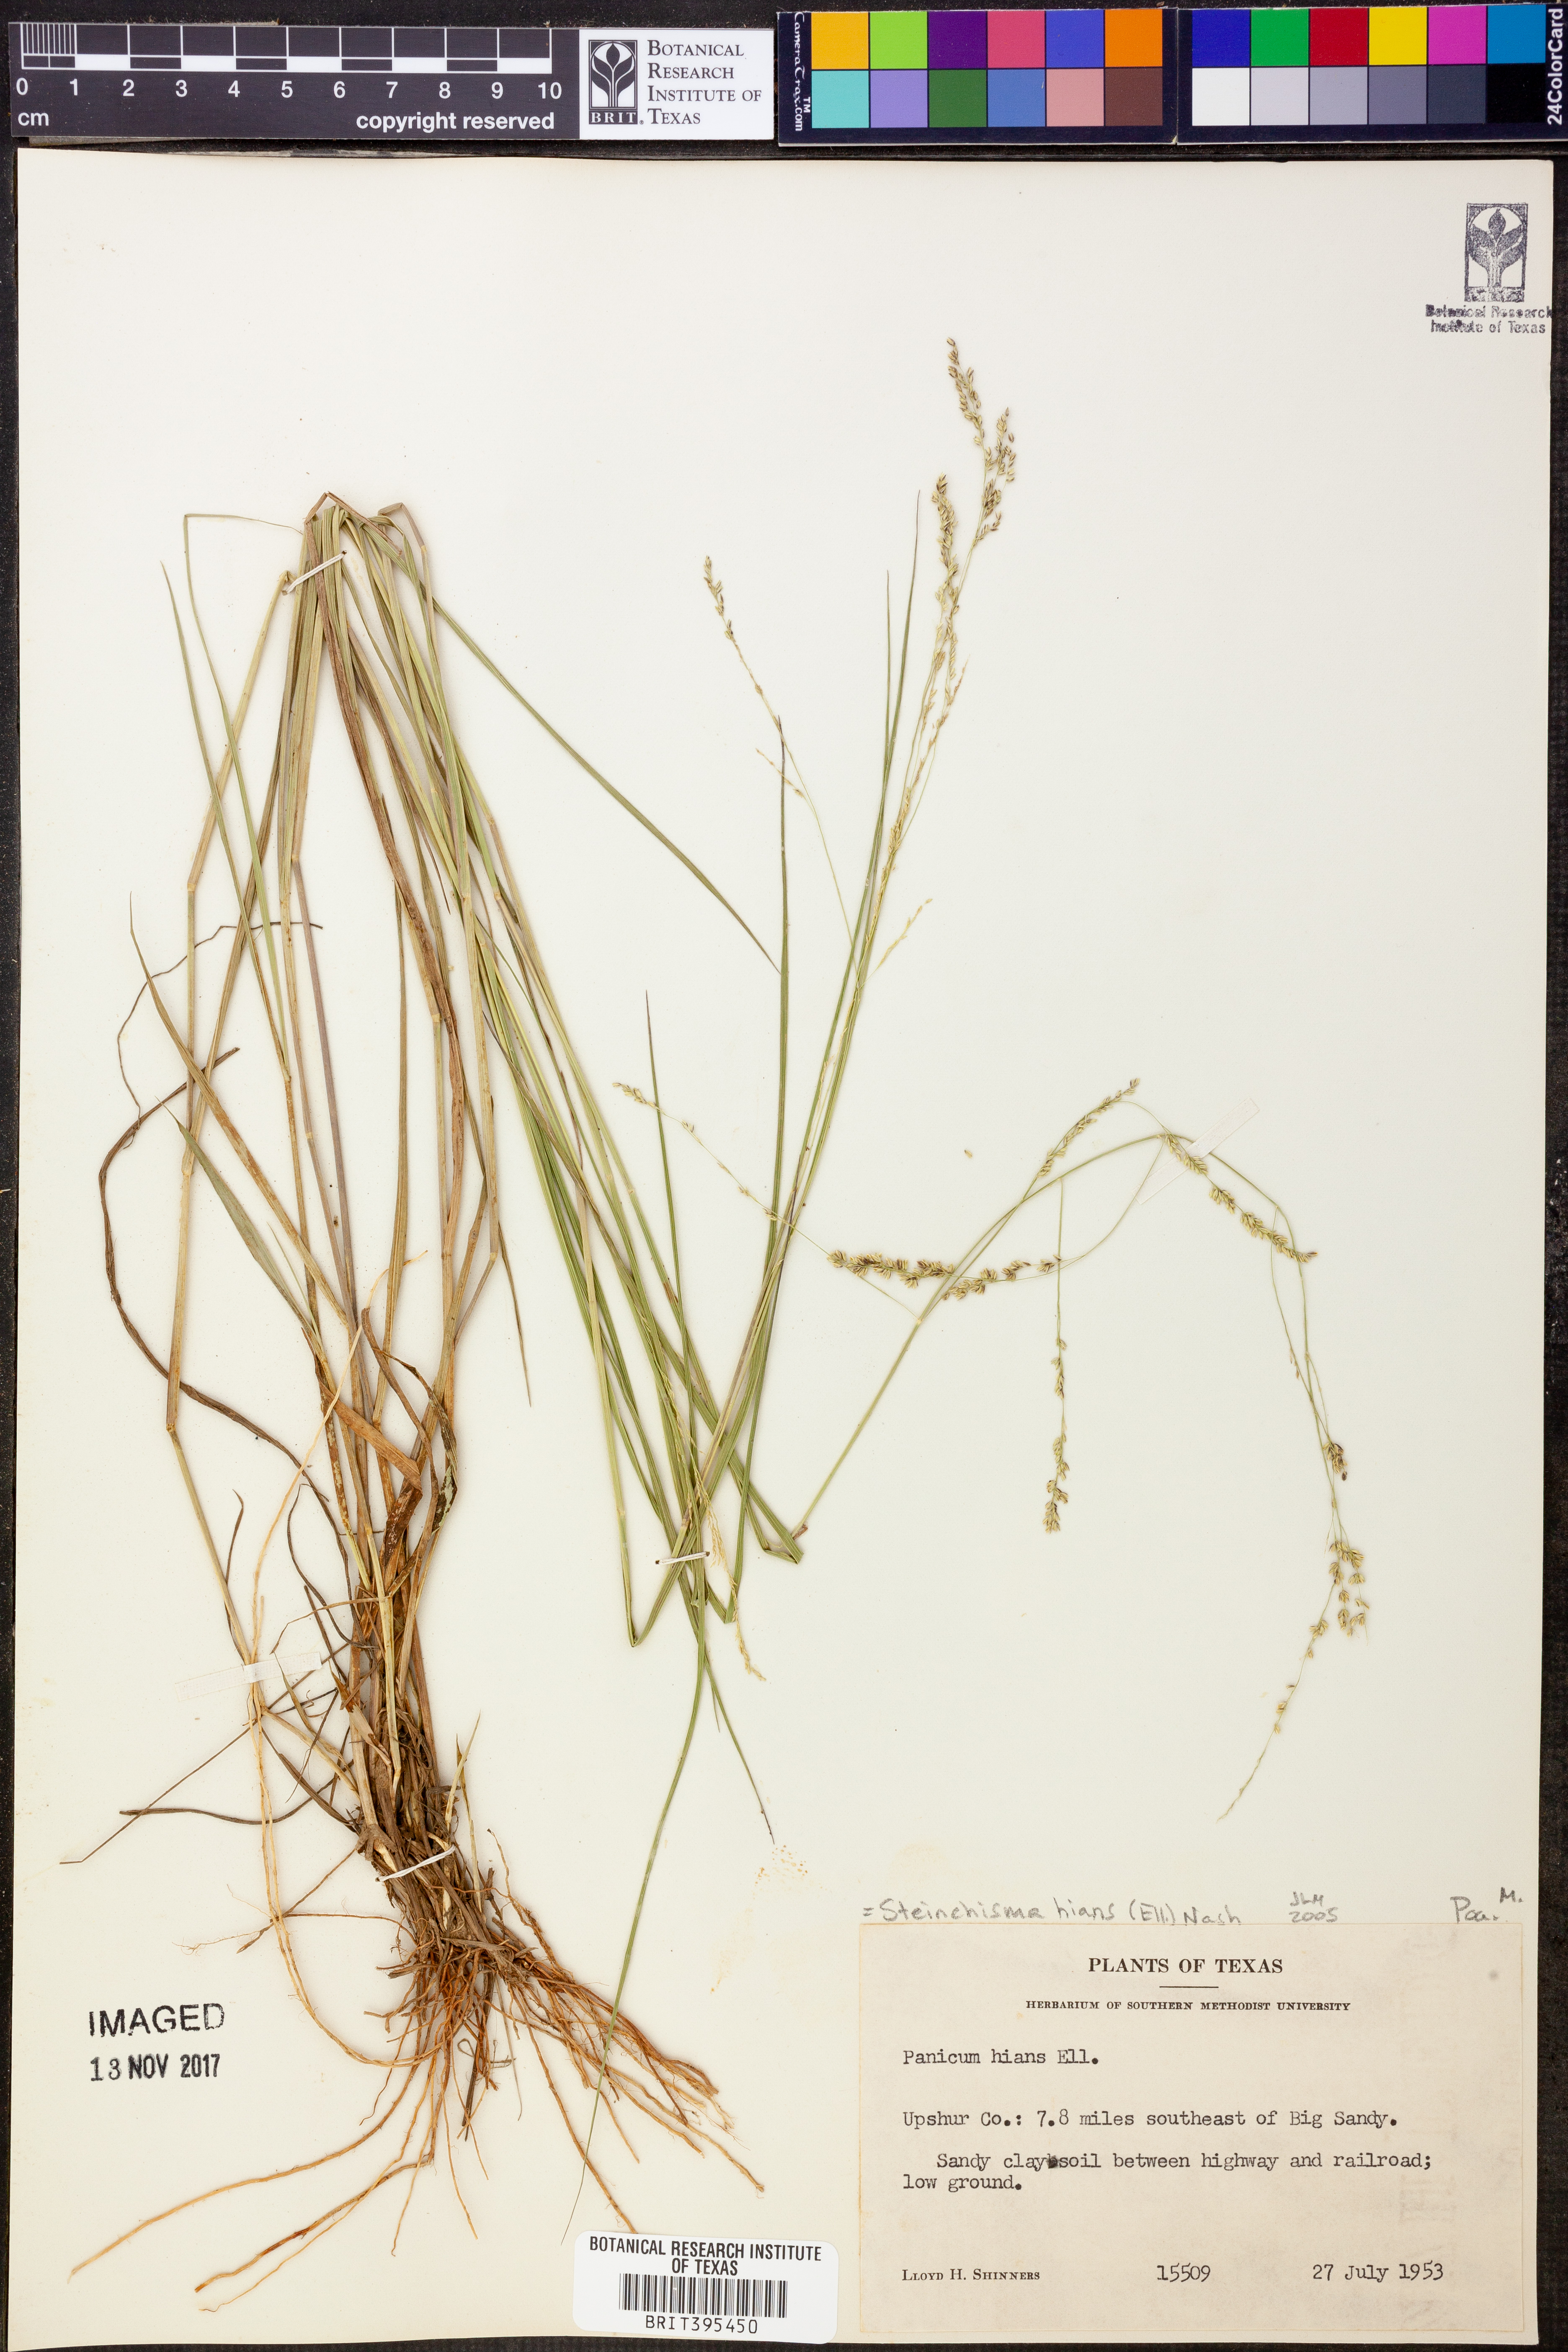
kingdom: Plantae
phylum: Tracheophyta
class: Liliopsida
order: Poales
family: Poaceae
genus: Steinchisma
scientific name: Steinchisma hians
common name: Gaping panic grass
